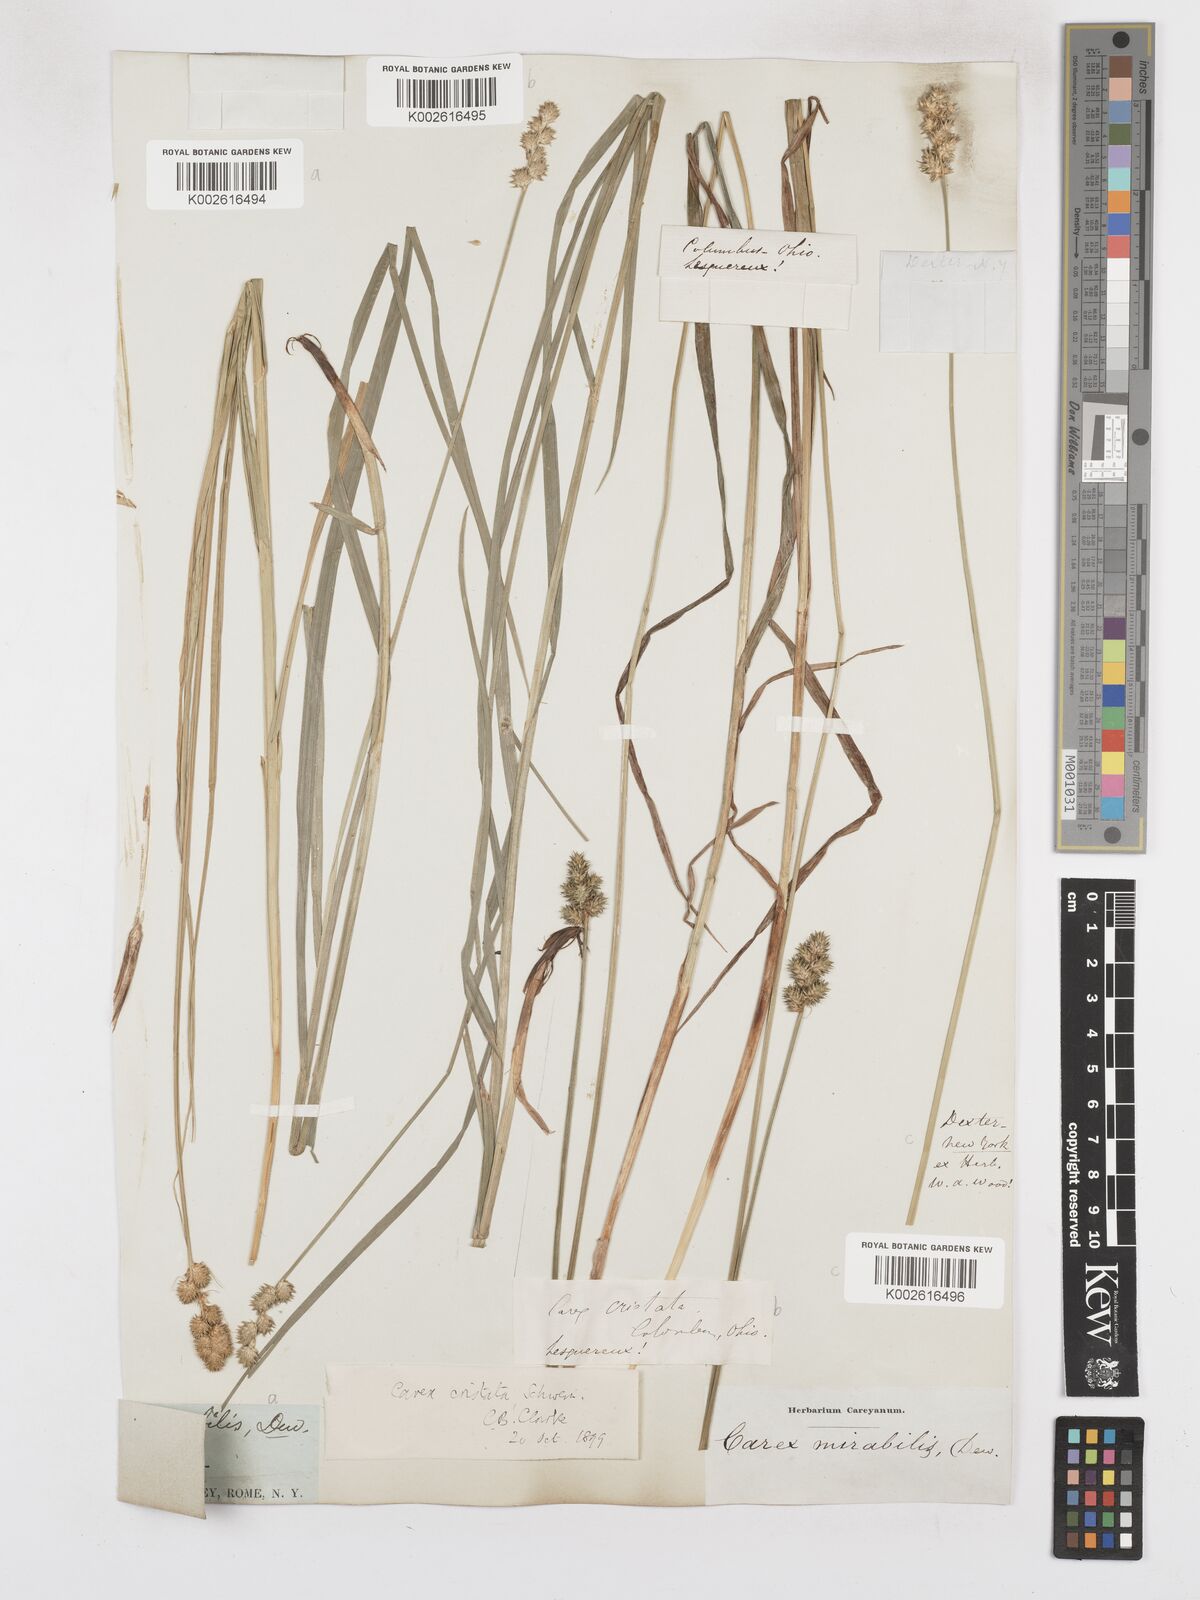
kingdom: Plantae
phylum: Tracheophyta
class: Liliopsida
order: Poales
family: Cyperaceae
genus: Carex
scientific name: Carex cristatella
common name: Crested oval sedge
